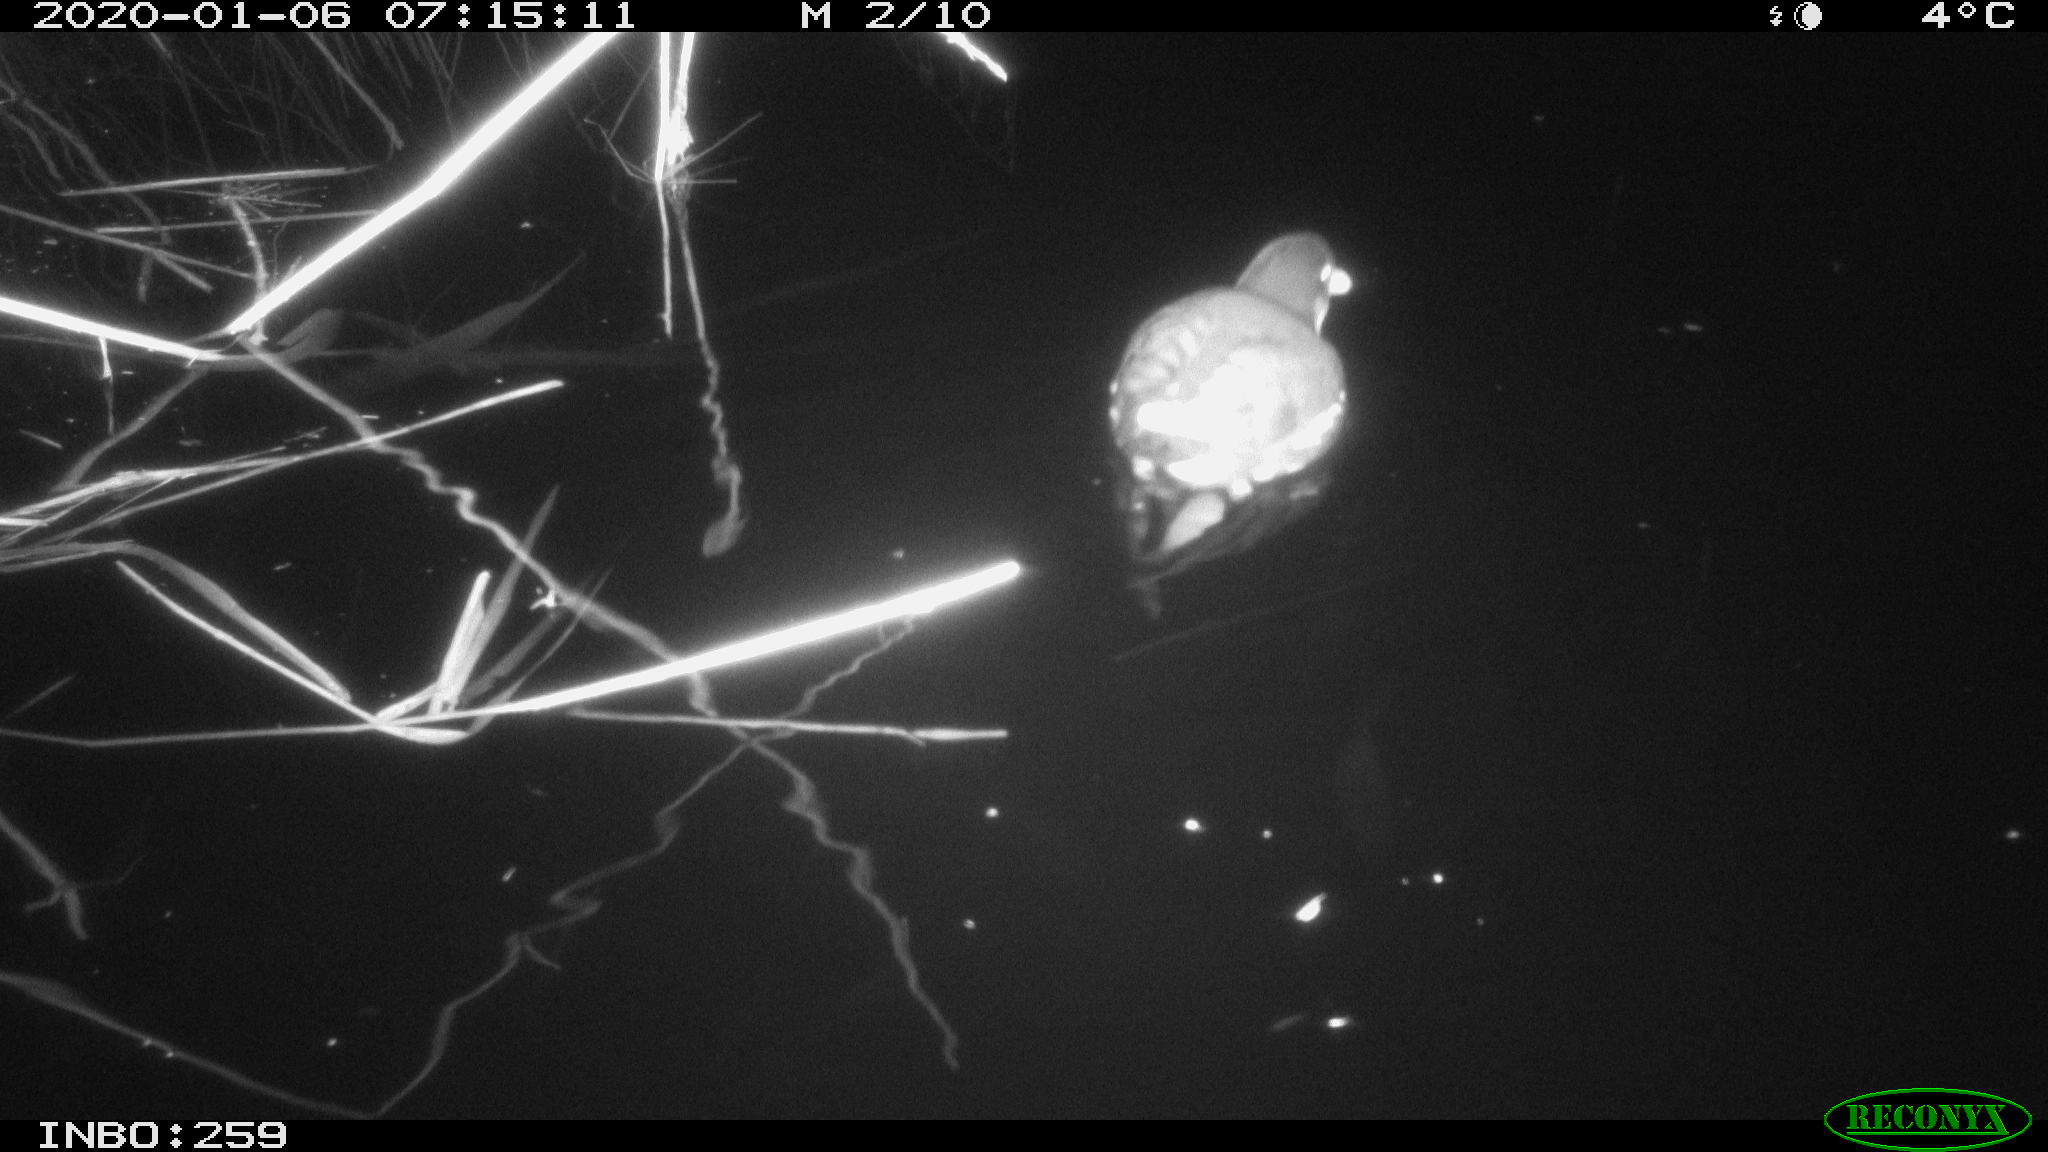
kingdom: Animalia
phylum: Chordata
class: Aves
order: Gruiformes
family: Rallidae
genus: Gallinula
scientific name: Gallinula chloropus
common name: Common moorhen
